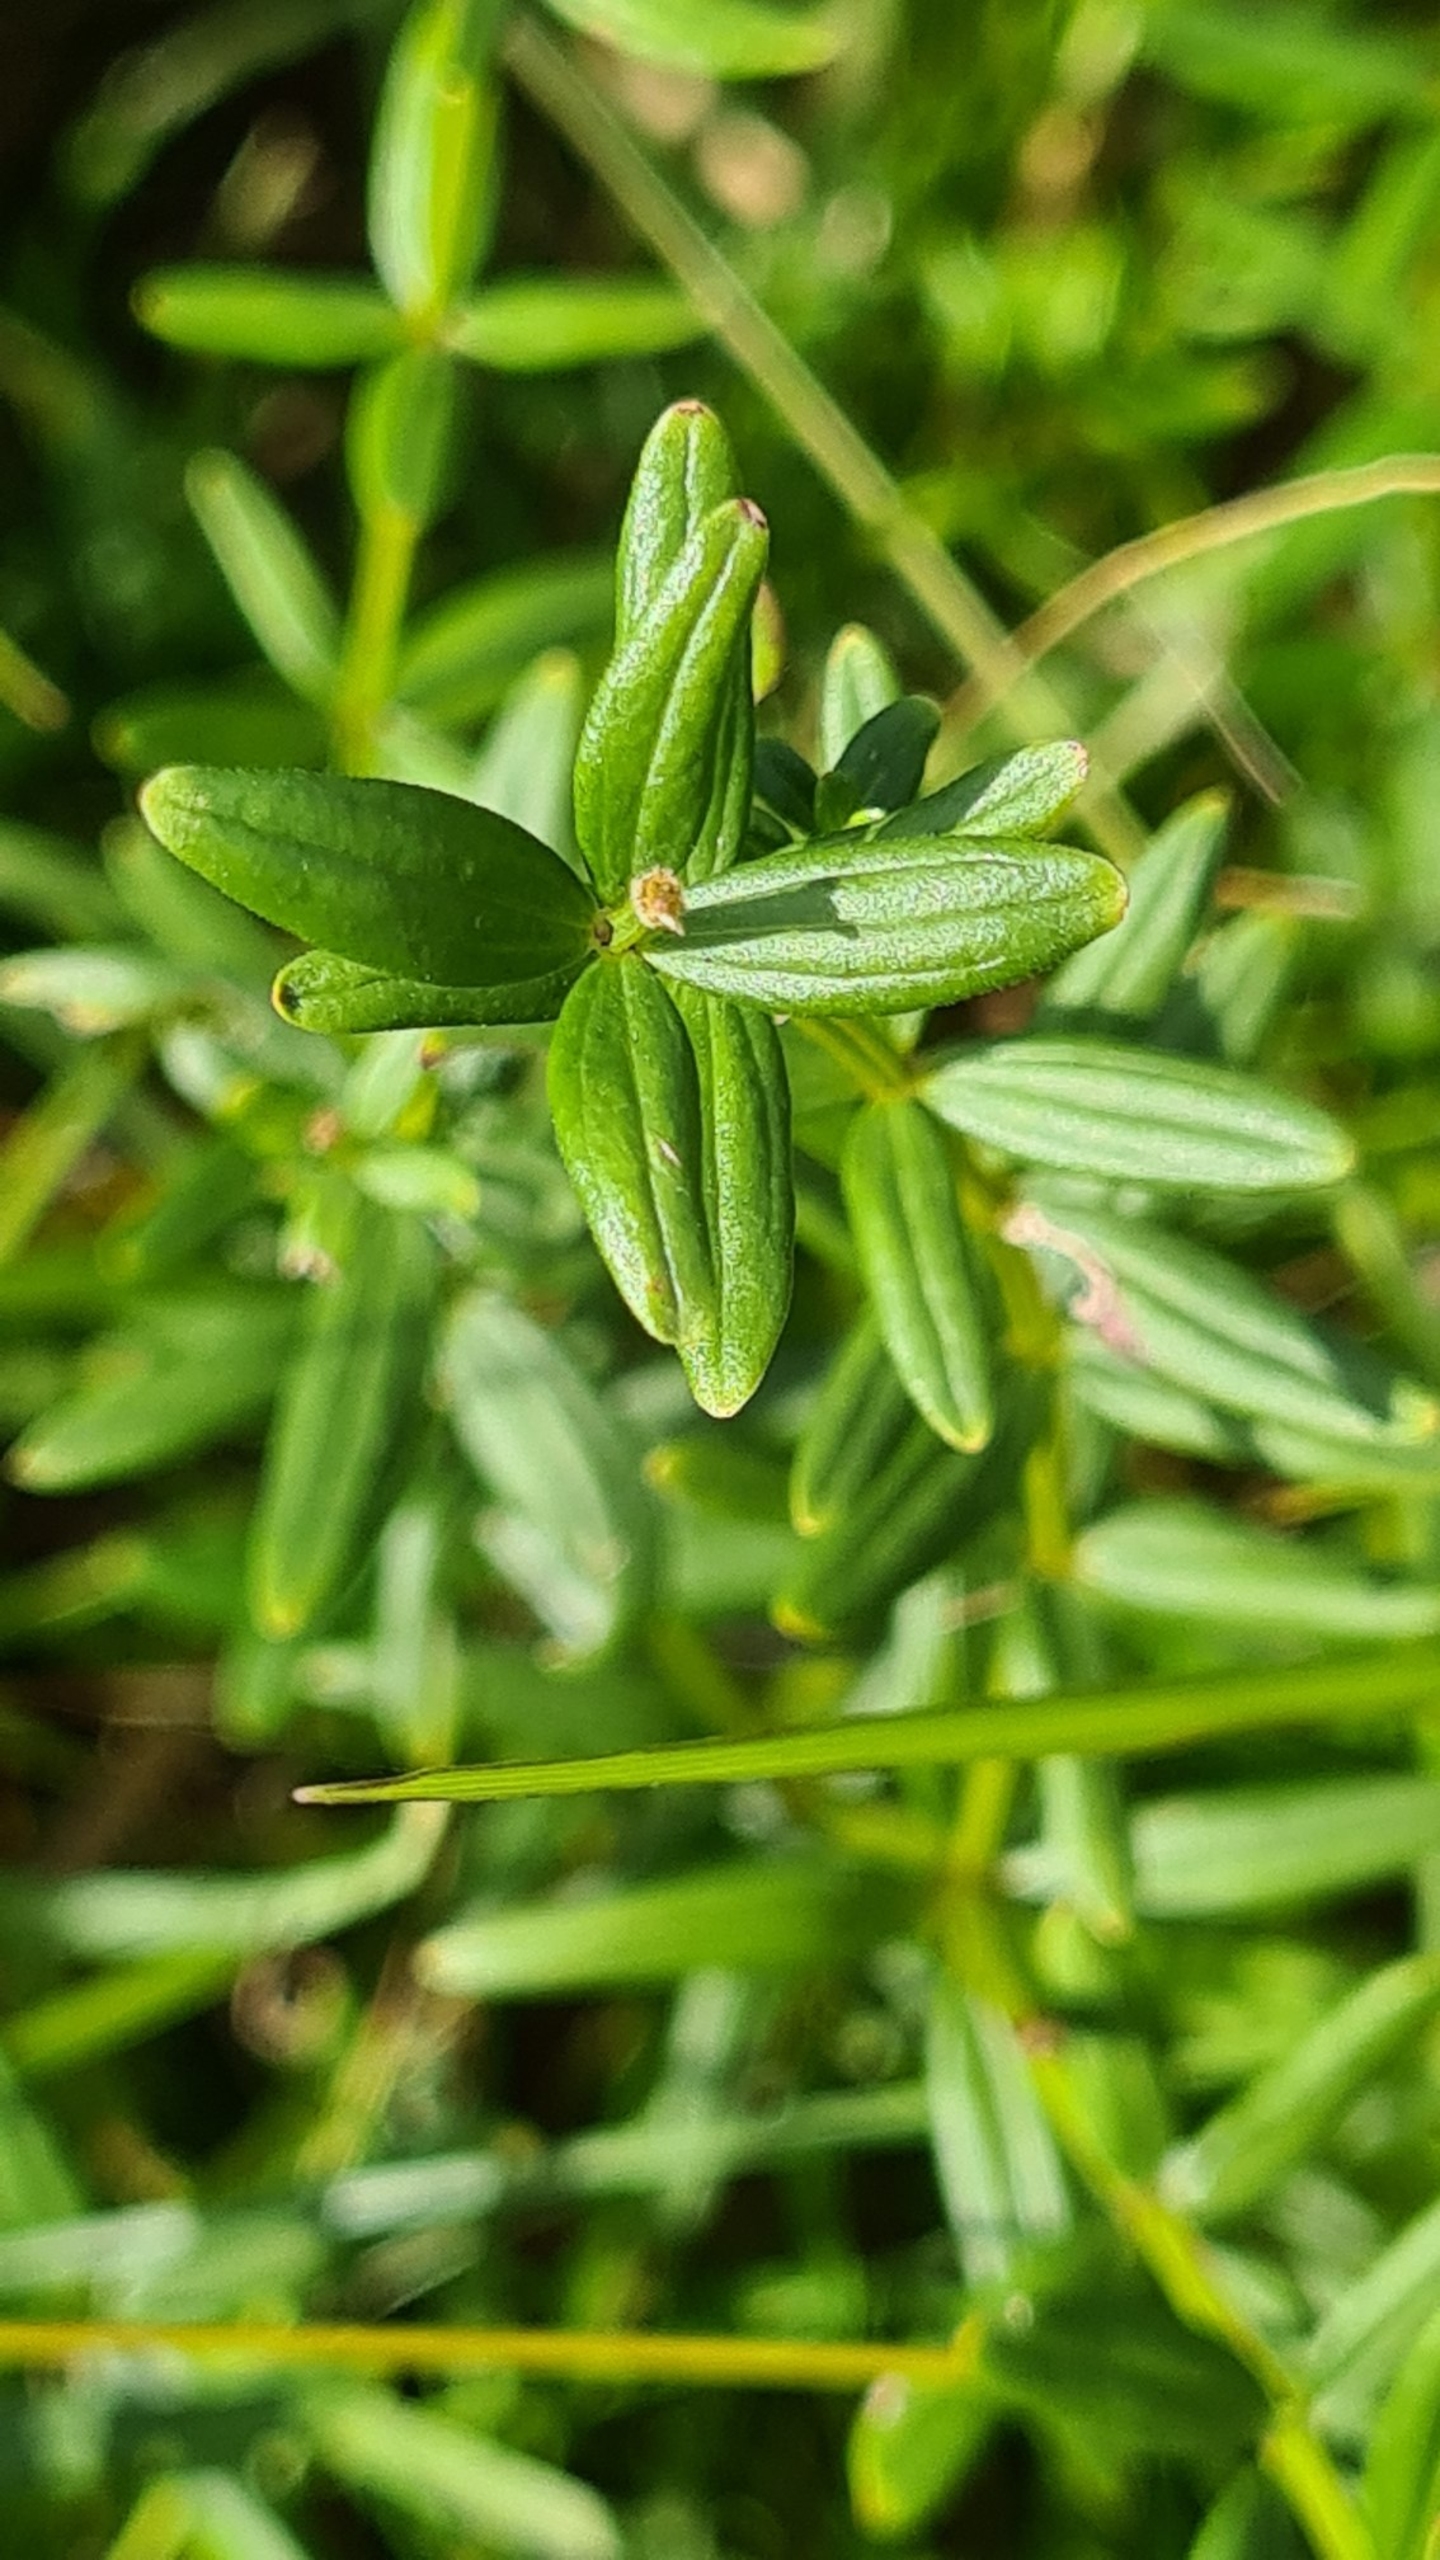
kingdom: Plantae
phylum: Tracheophyta
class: Magnoliopsida
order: Gentianales
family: Rubiaceae
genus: Galium
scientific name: Galium boreale
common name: Trenervet snerre
